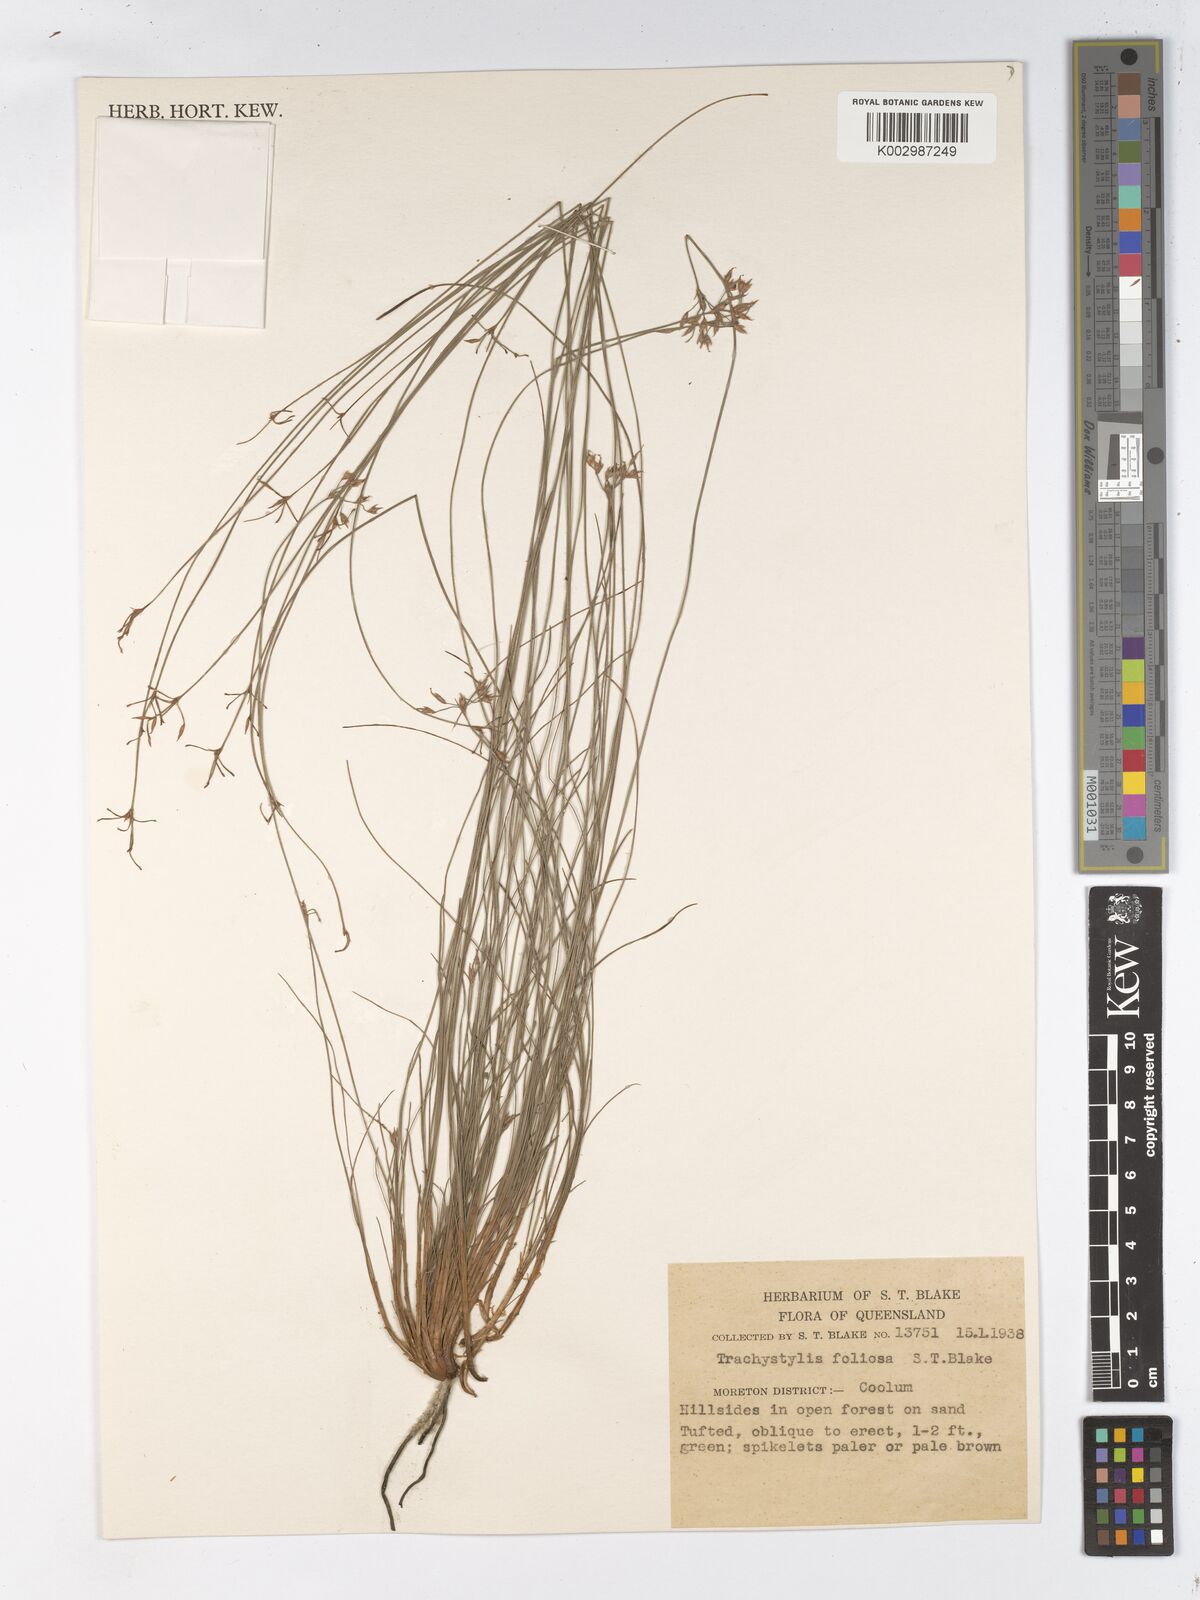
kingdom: Plantae
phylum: Tracheophyta
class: Liliopsida
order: Poales
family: Cyperaceae
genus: Trachystylis
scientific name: Trachystylis stradbrokensis
